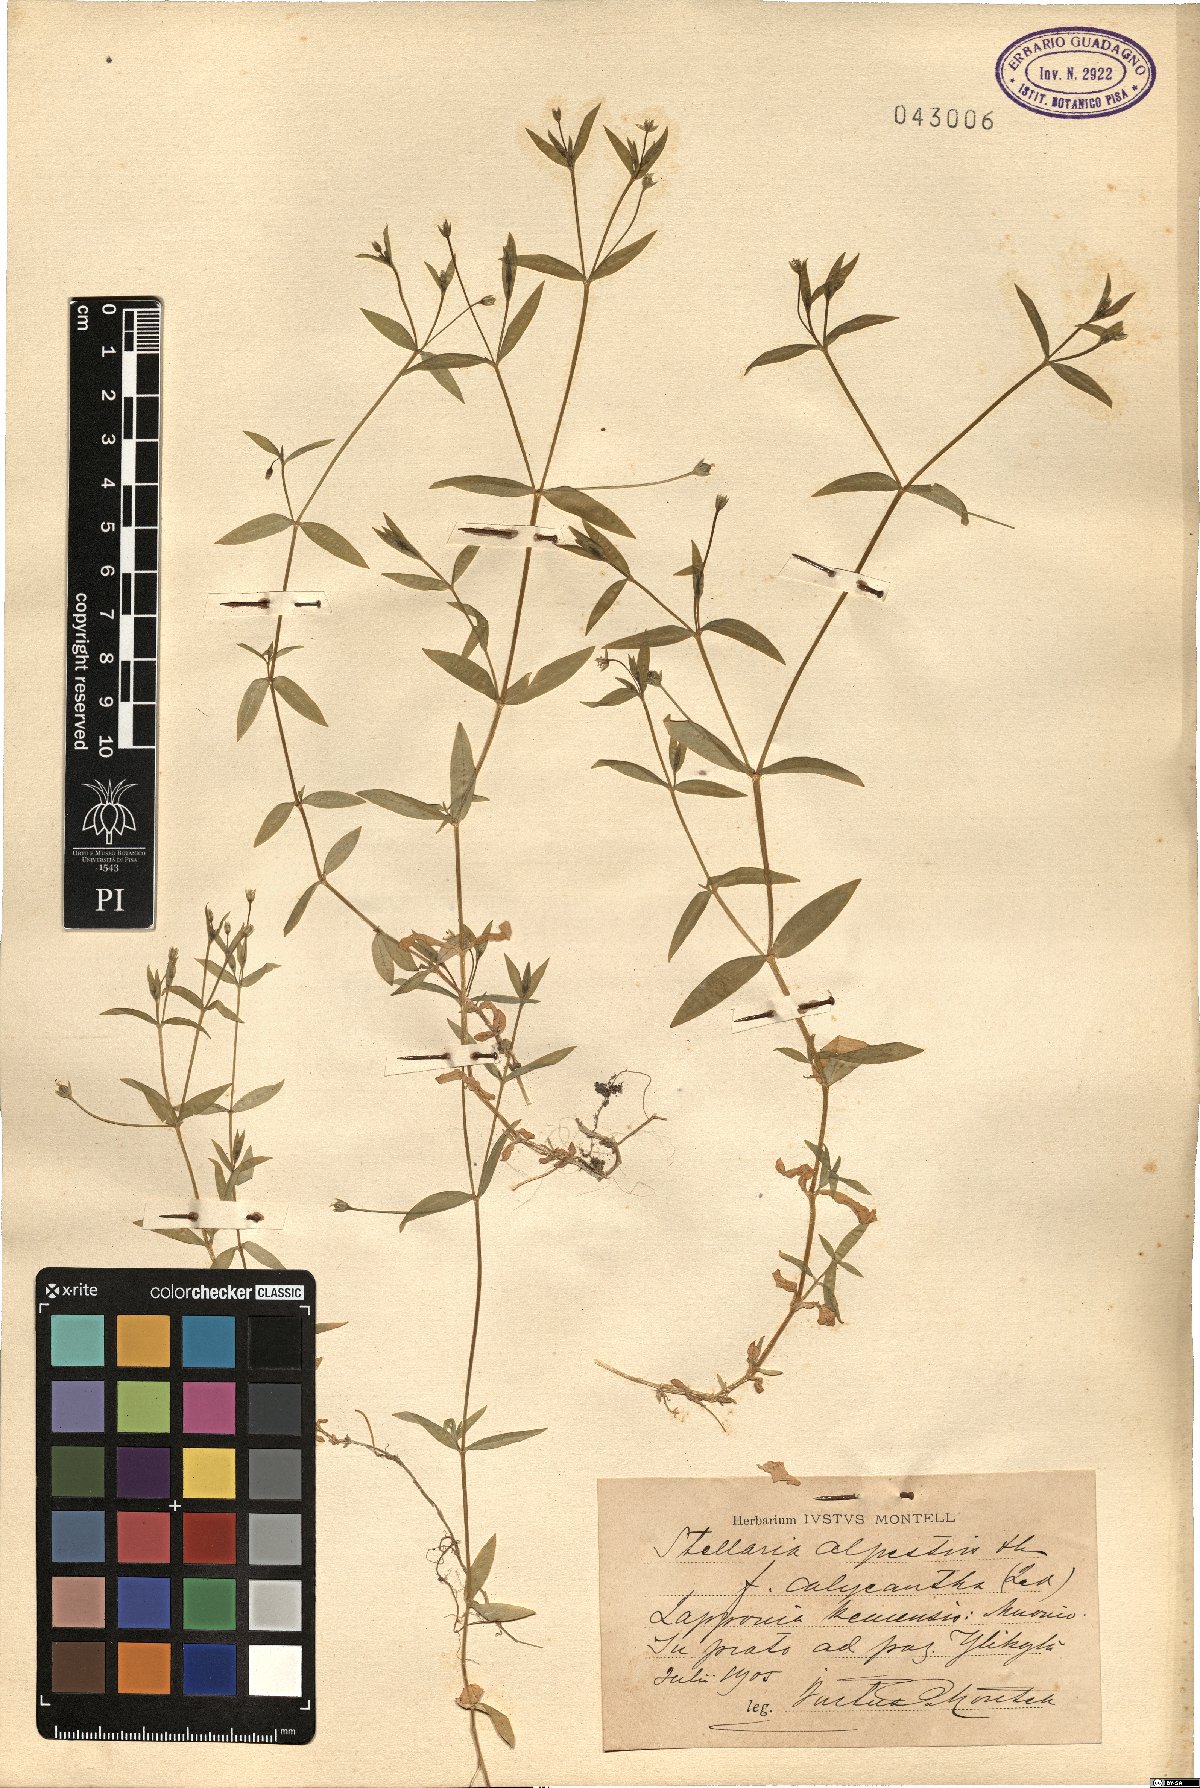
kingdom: Plantae
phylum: Tracheophyta
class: Magnoliopsida
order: Caryophyllales
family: Caryophyllaceae
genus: Stellaria
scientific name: Stellaria alpestris
